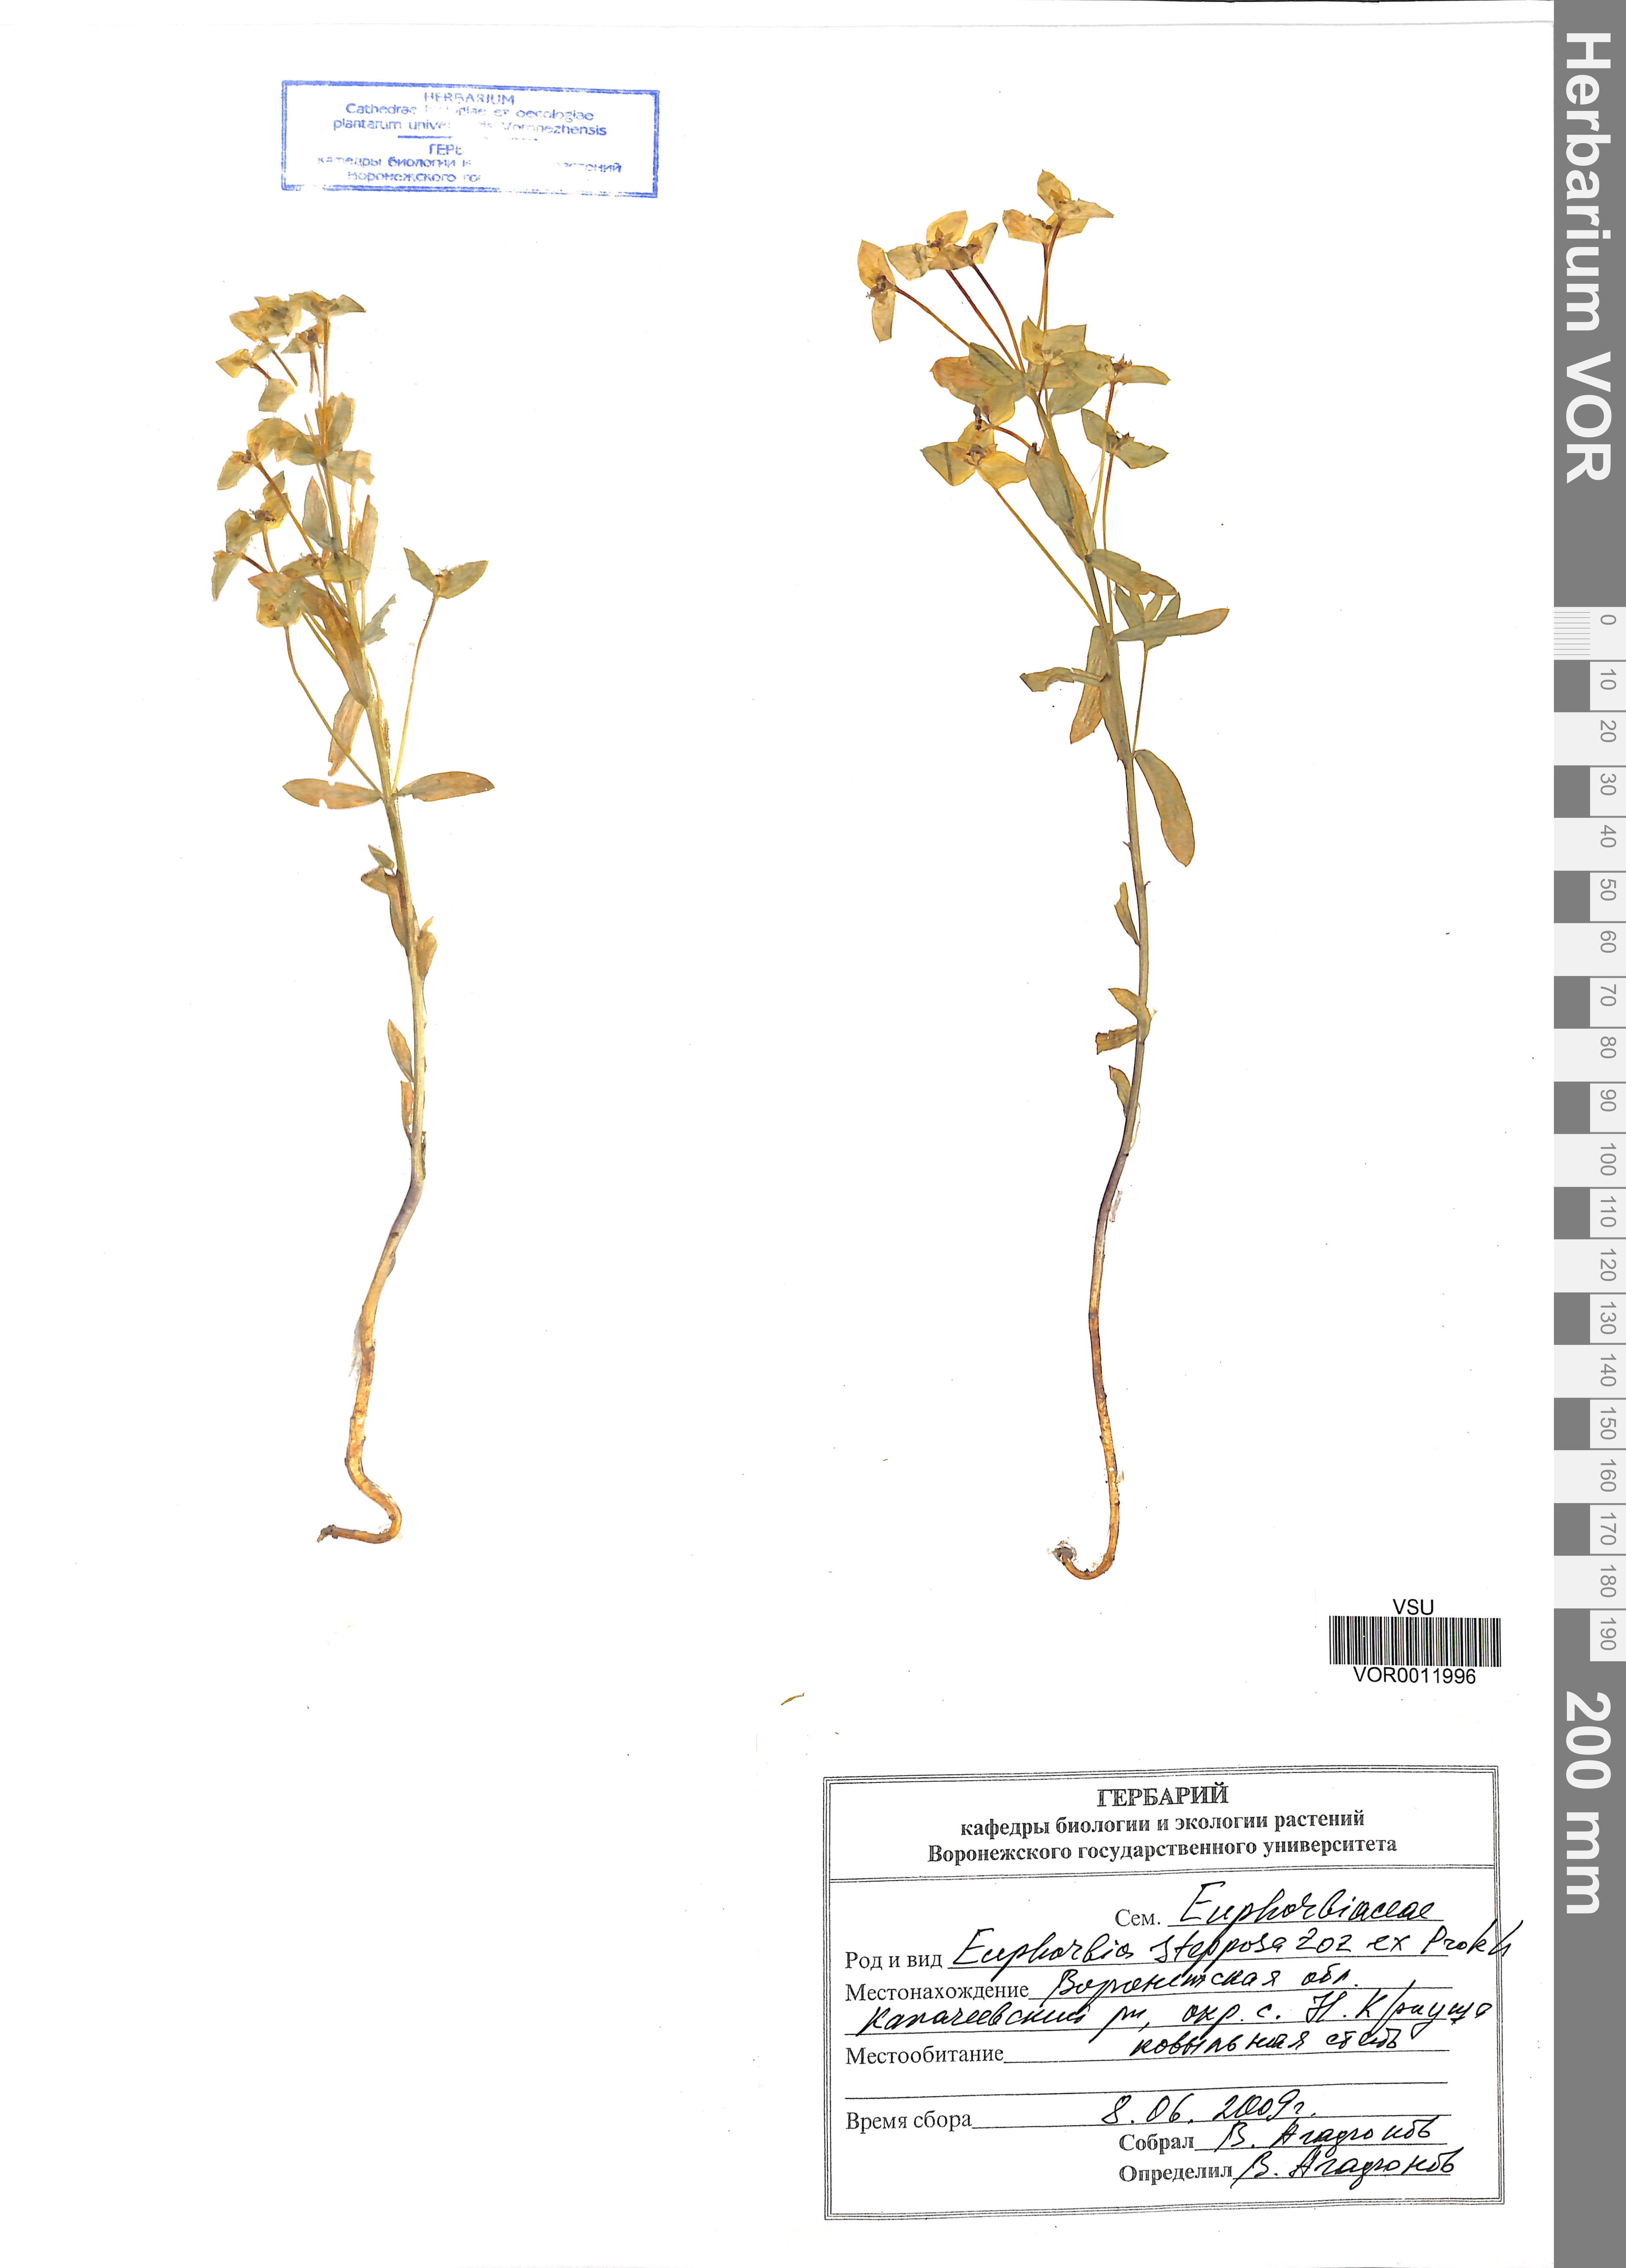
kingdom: Plantae
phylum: Tracheophyta
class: Magnoliopsida
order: Malpighiales
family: Euphorbiaceae
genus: Euphorbia
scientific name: Euphorbia stepposa
